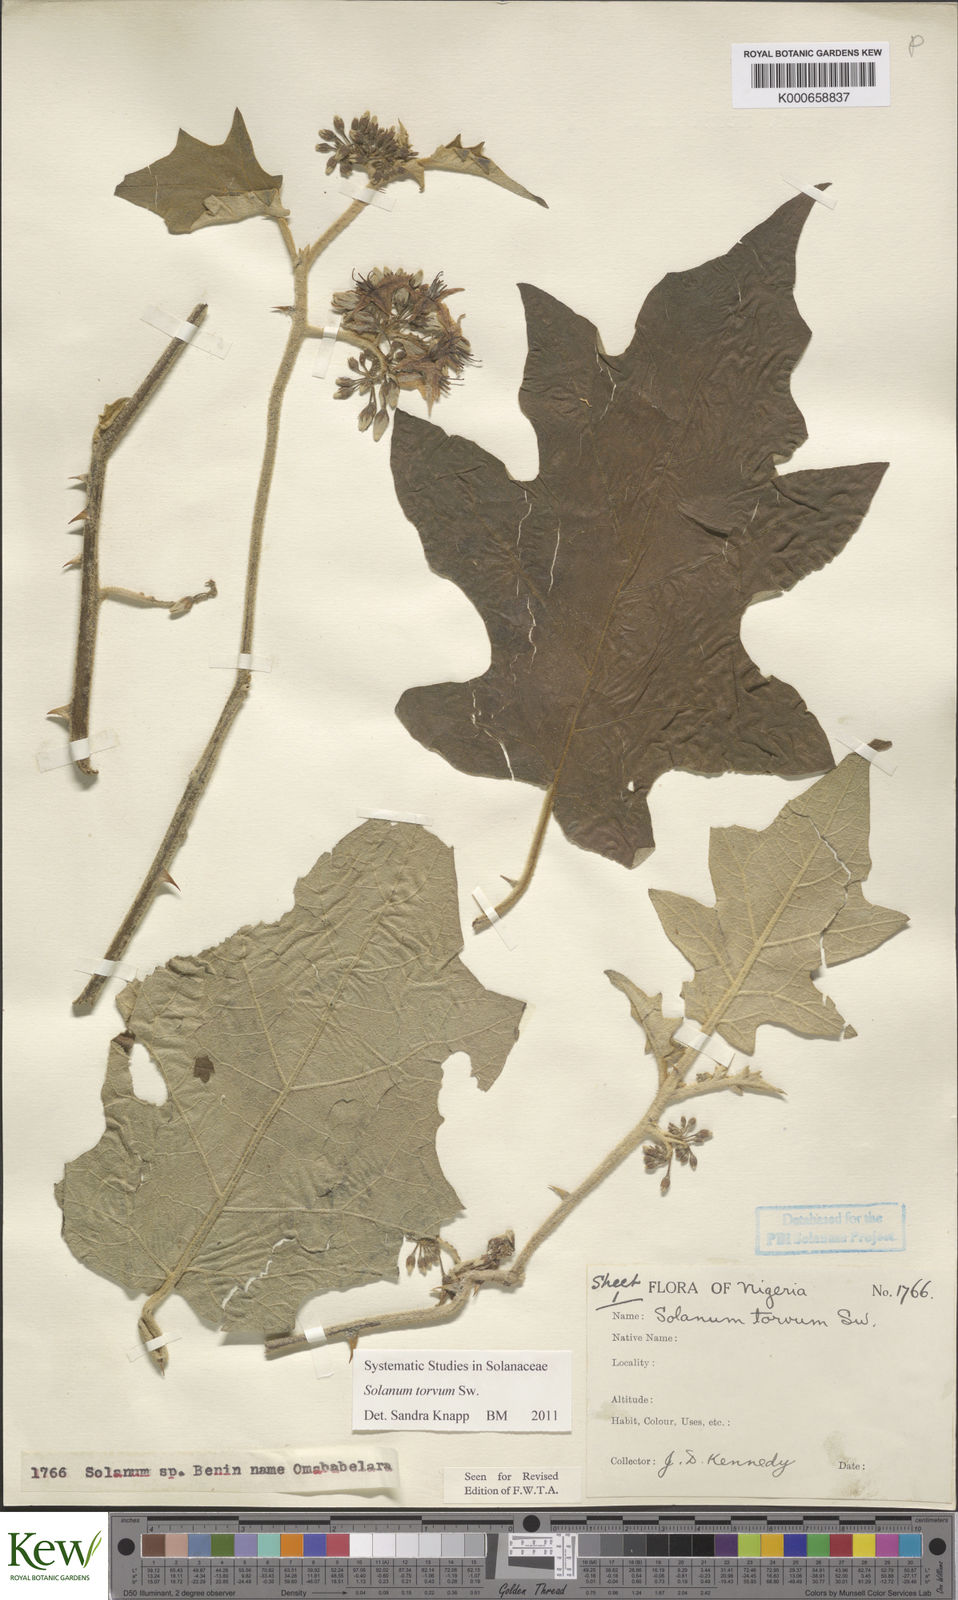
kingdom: Plantae
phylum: Tracheophyta
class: Magnoliopsida
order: Solanales
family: Solanaceae
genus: Solanum
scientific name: Solanum torvum
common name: Turkey berry
